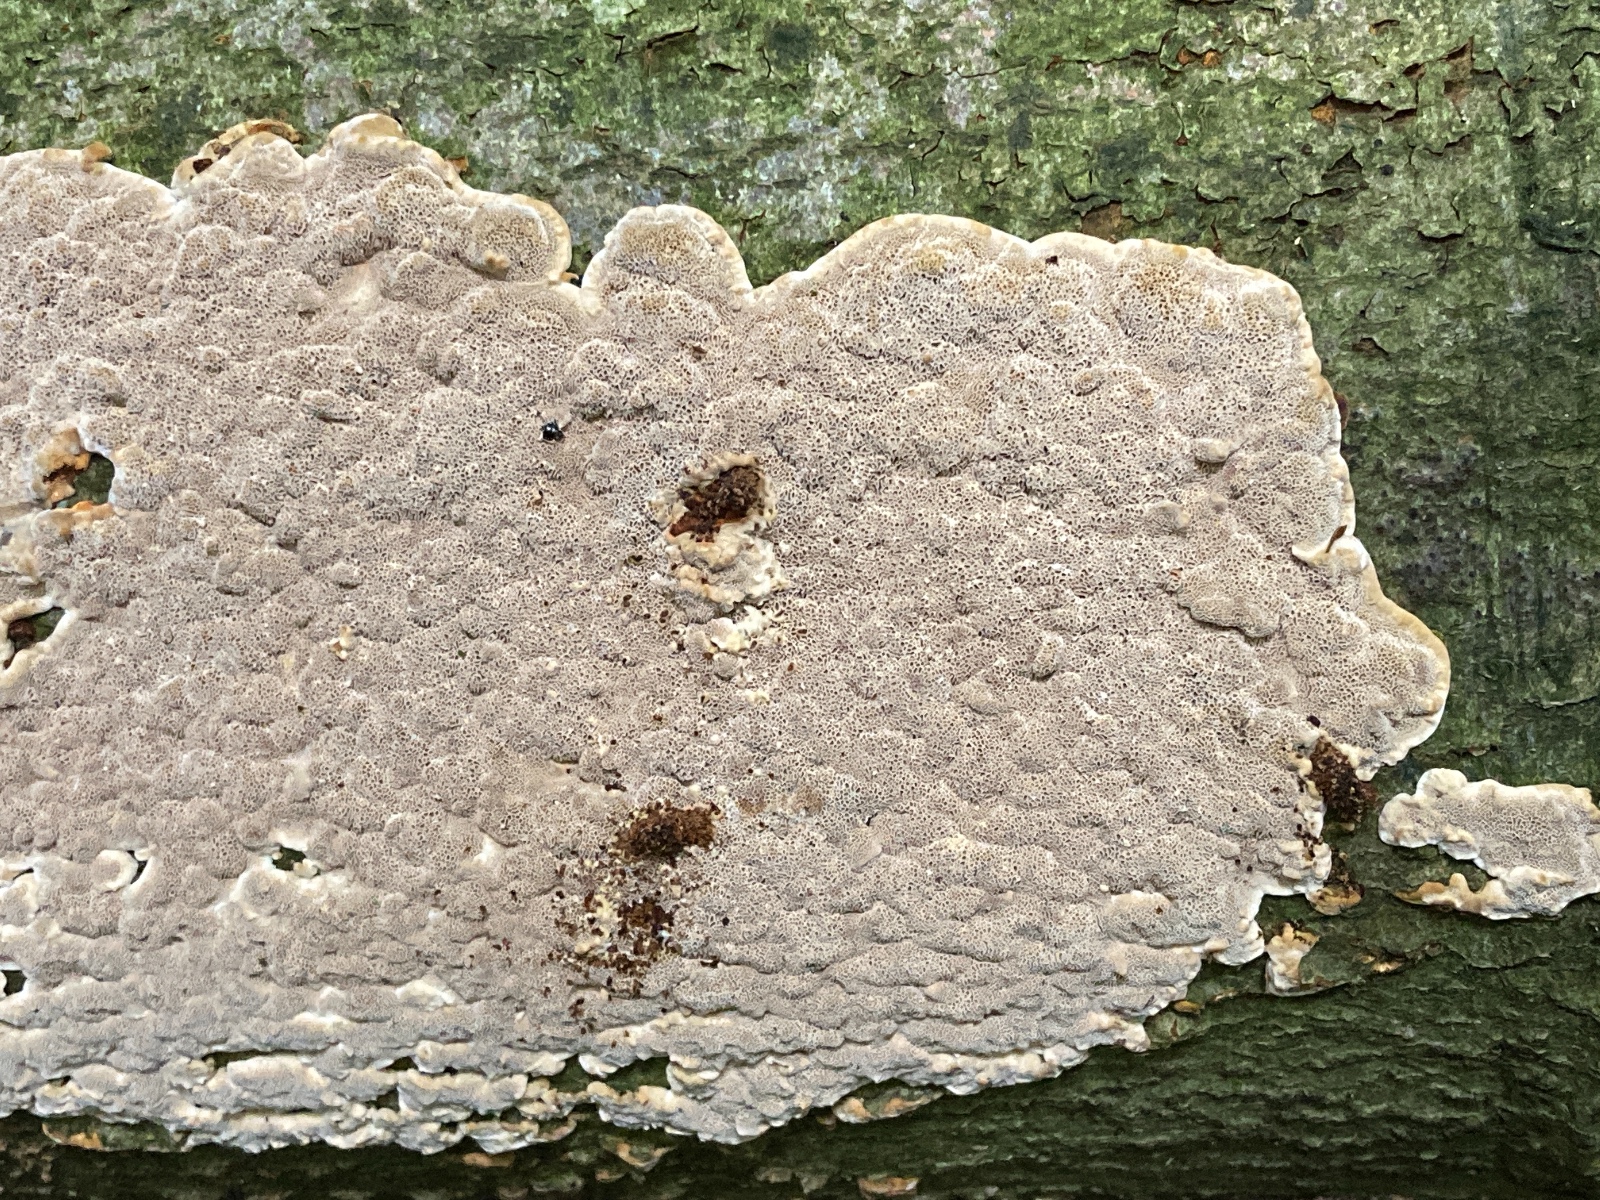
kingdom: Fungi
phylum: Basidiomycota
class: Agaricomycetes
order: Hymenochaetales
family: Hymenochaetaceae
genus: Mensularia
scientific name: Mensularia nodulosa
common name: bøge-spejlporesvamp
